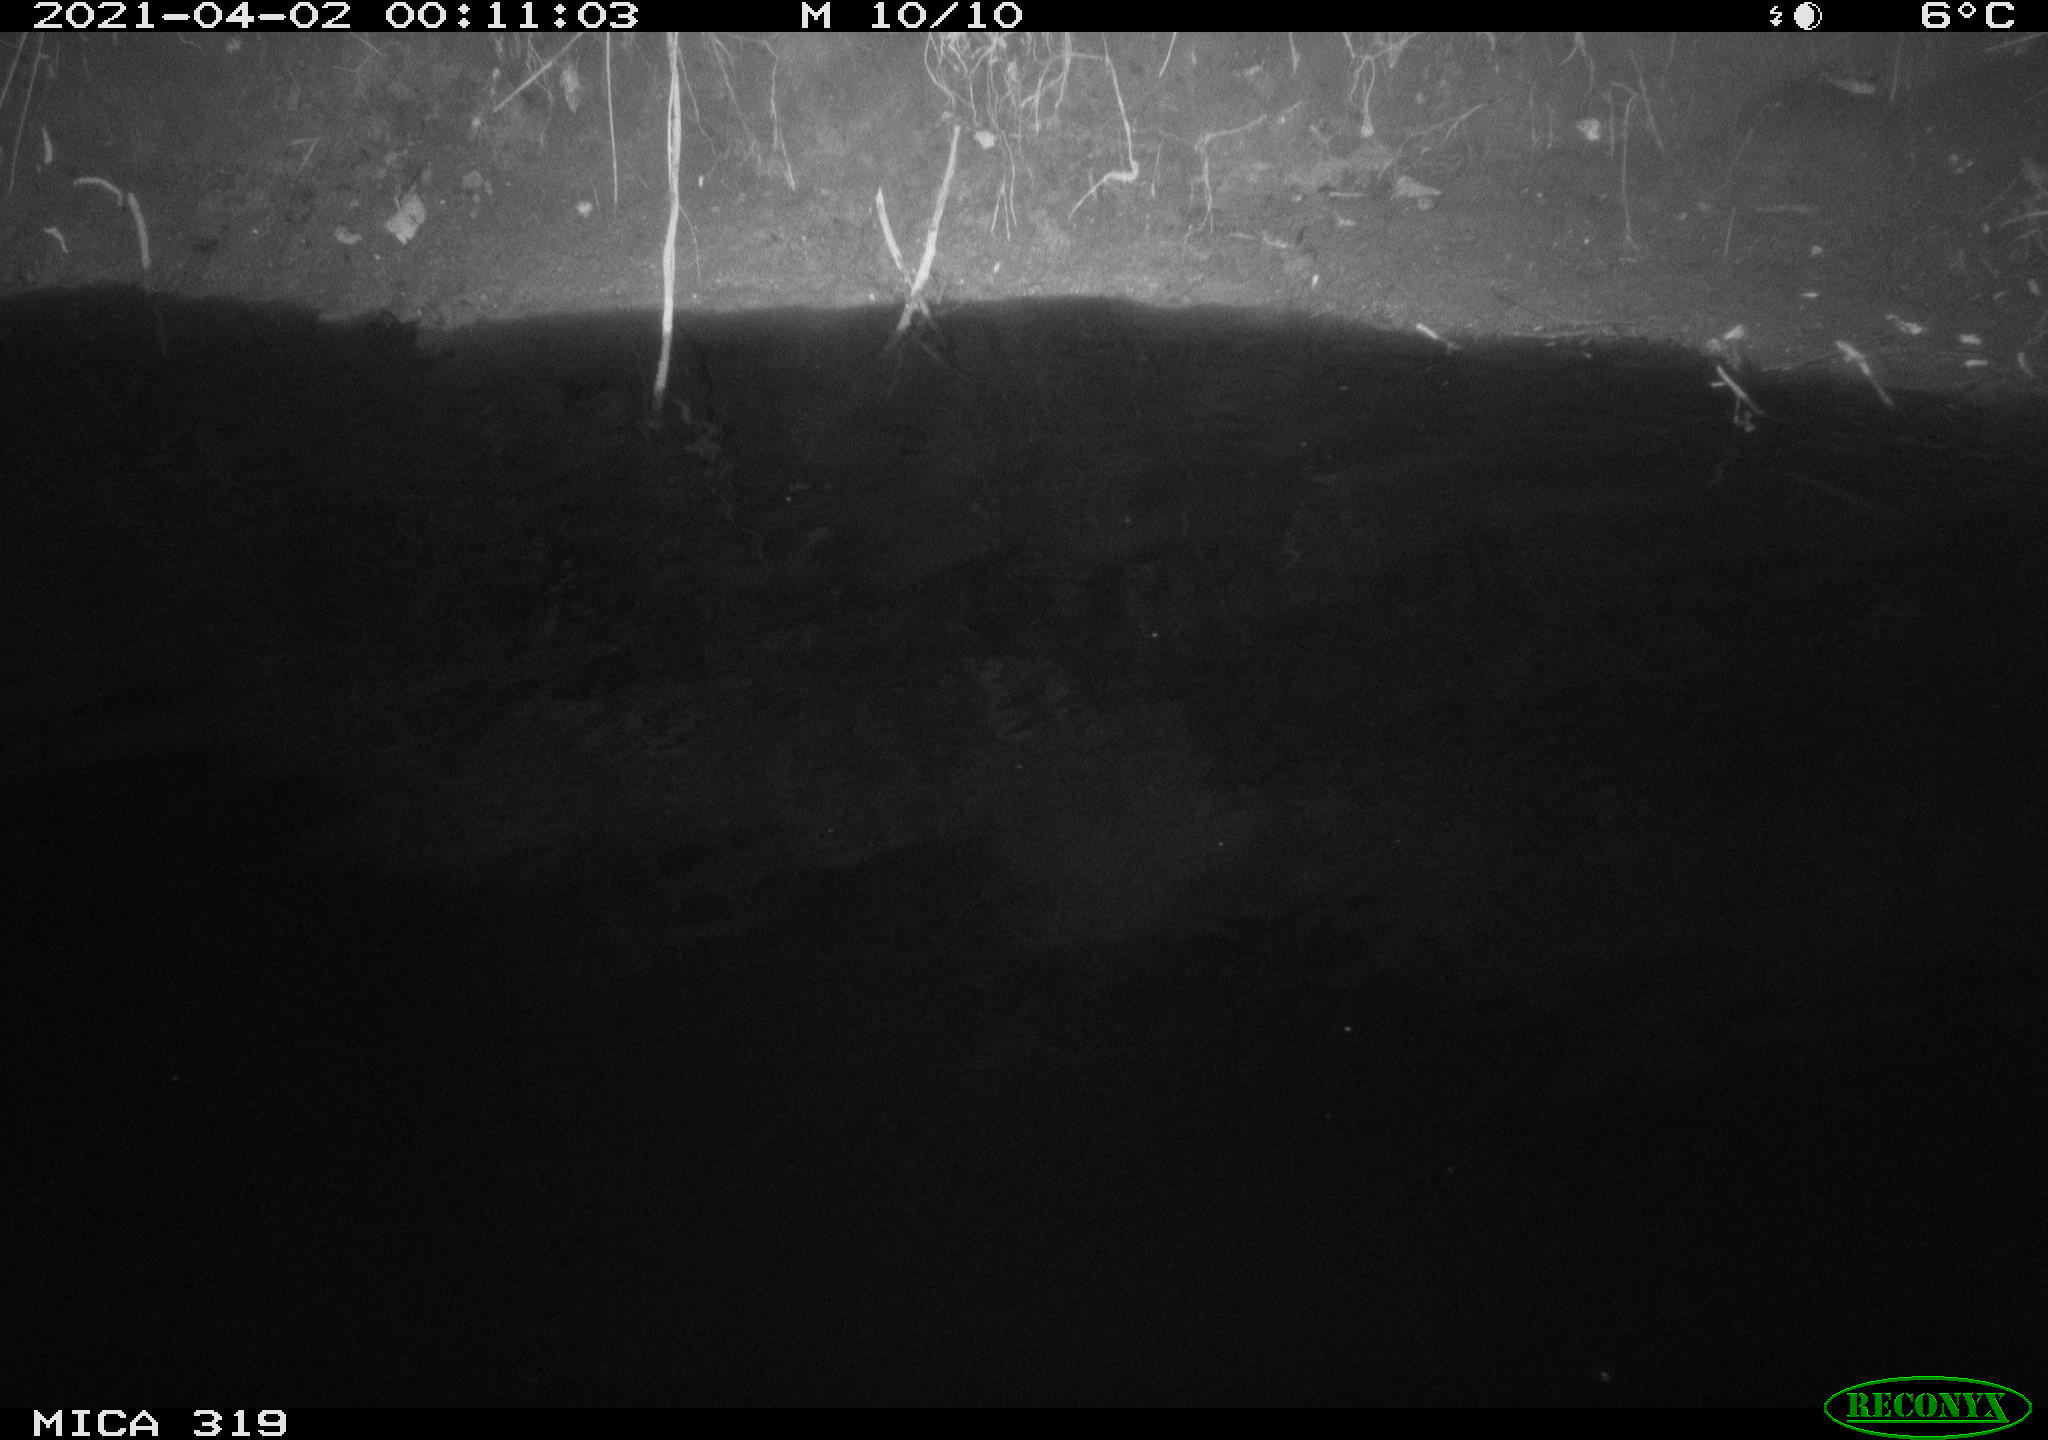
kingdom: Animalia
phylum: Chordata
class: Aves
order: Anseriformes
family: Anatidae
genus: Anas
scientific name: Anas platyrhynchos
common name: Mallard
